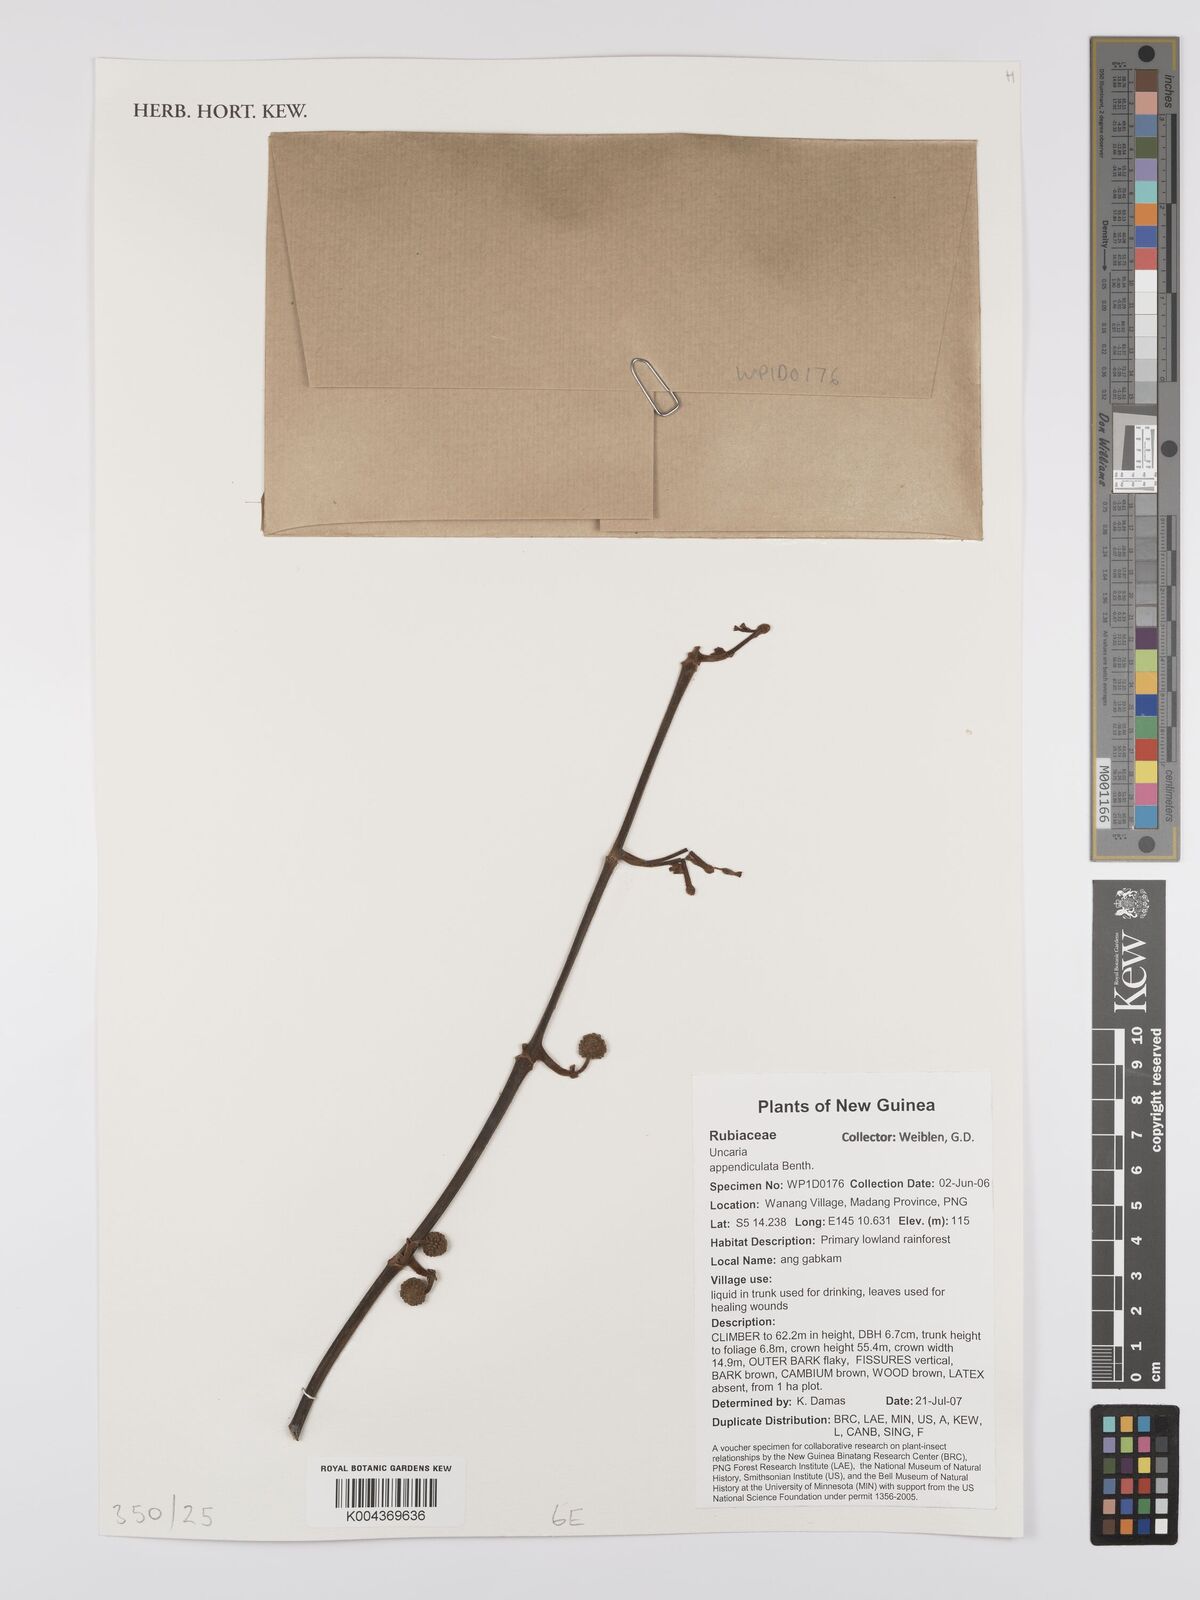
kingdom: Plantae
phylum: Tracheophyta
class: Magnoliopsida
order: Gentianales
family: Rubiaceae
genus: Uncaria
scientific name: Uncaria lanosa
